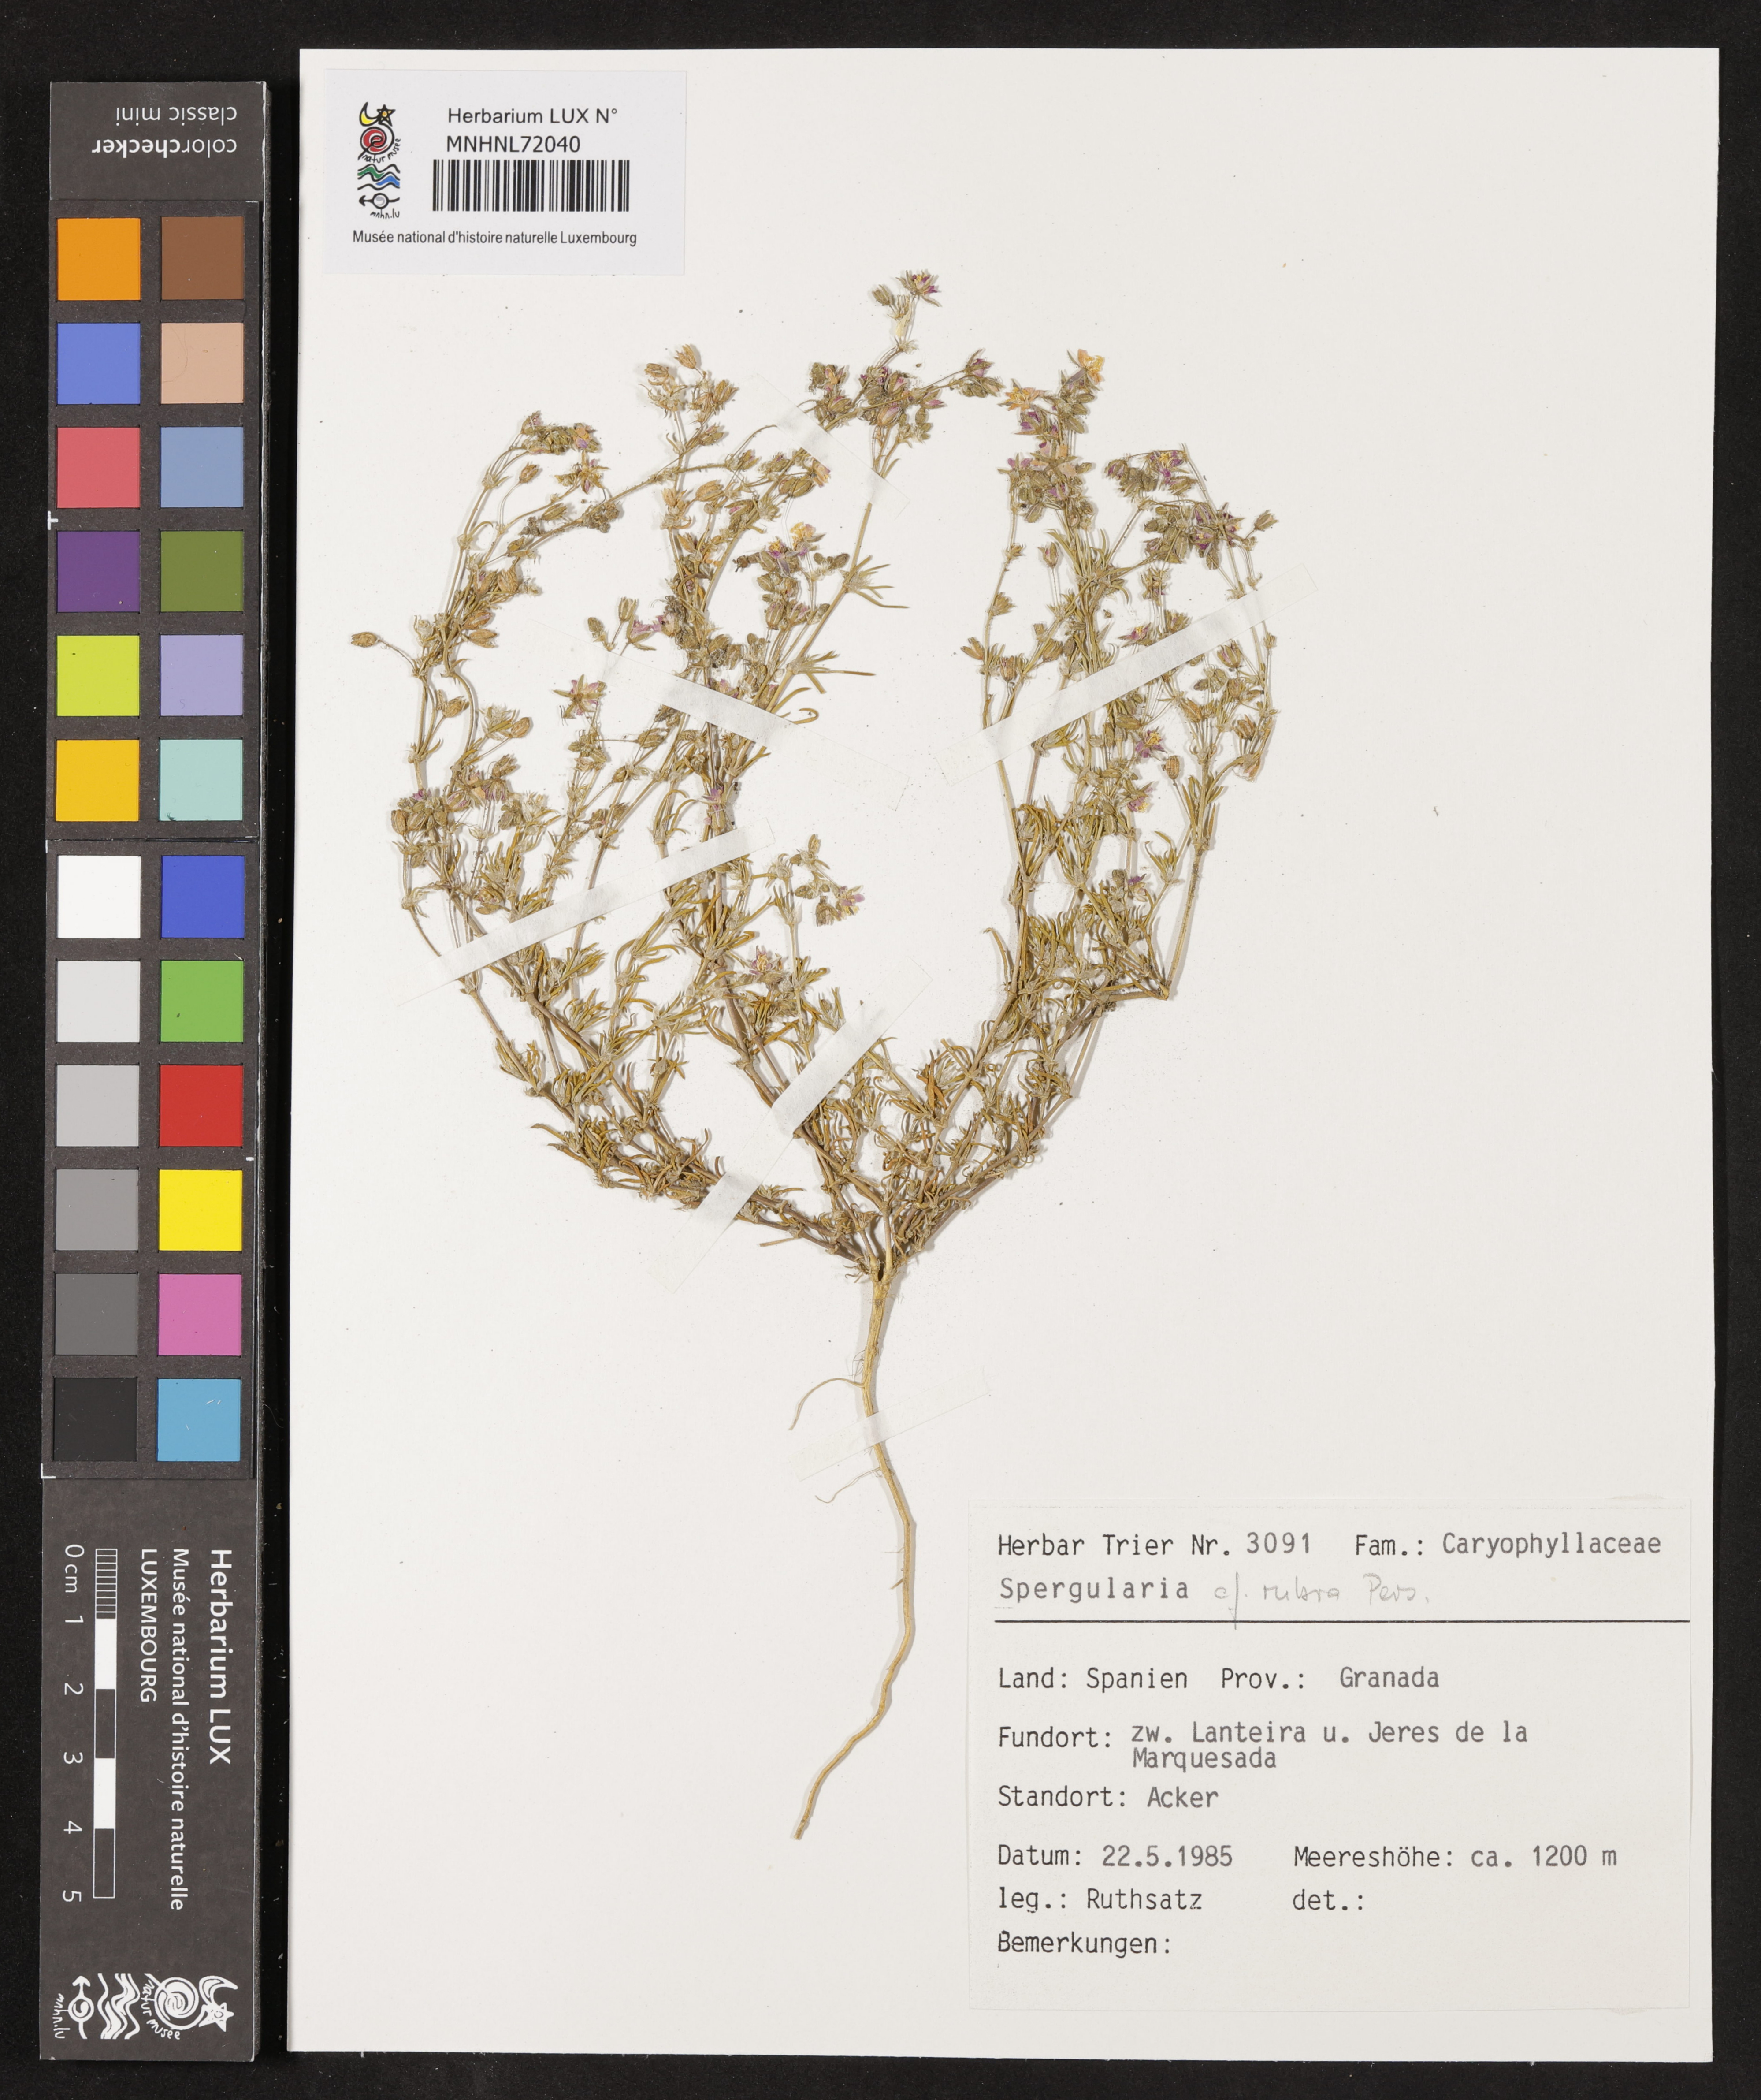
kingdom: Plantae
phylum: Tracheophyta
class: Magnoliopsida
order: Caryophyllales
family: Caryophyllaceae
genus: Spergularia
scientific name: Spergularia rubra
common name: Red sand-spurrey
